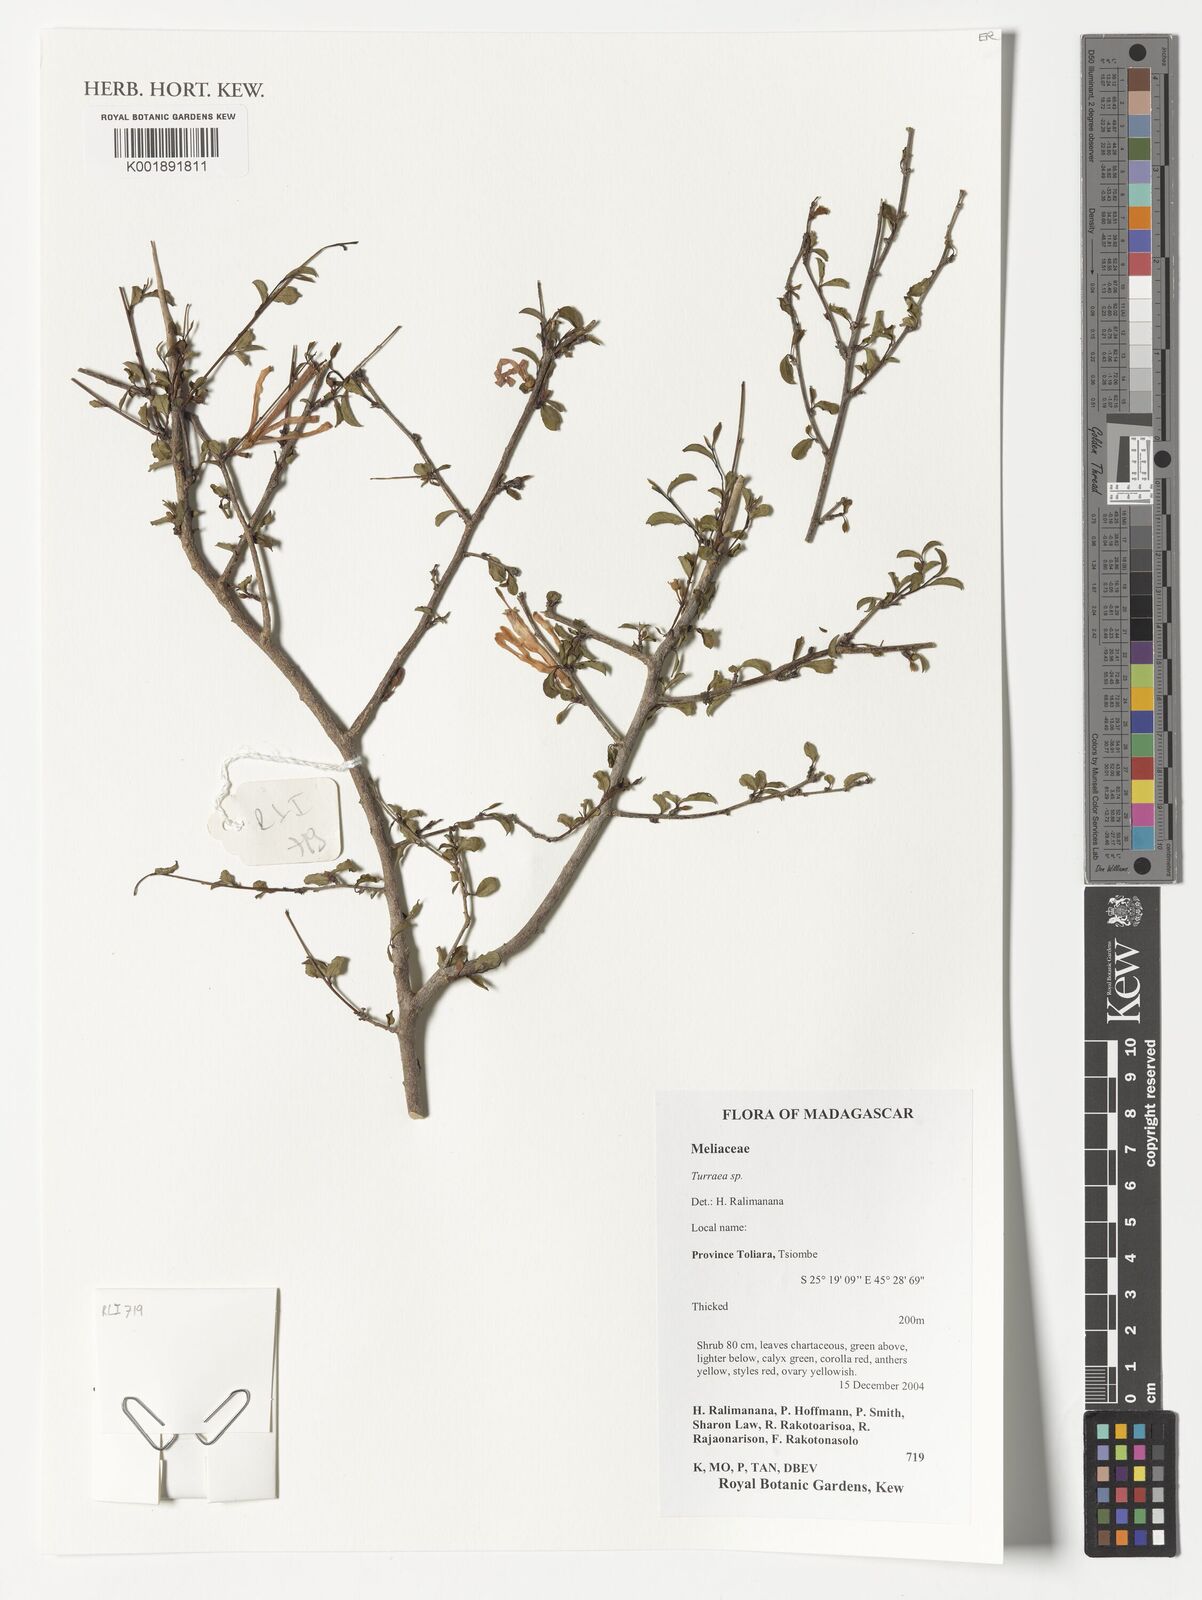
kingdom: Plantae
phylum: Tracheophyta
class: Magnoliopsida
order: Sapindales
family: Meliaceae
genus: Turraea
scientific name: Turraea
